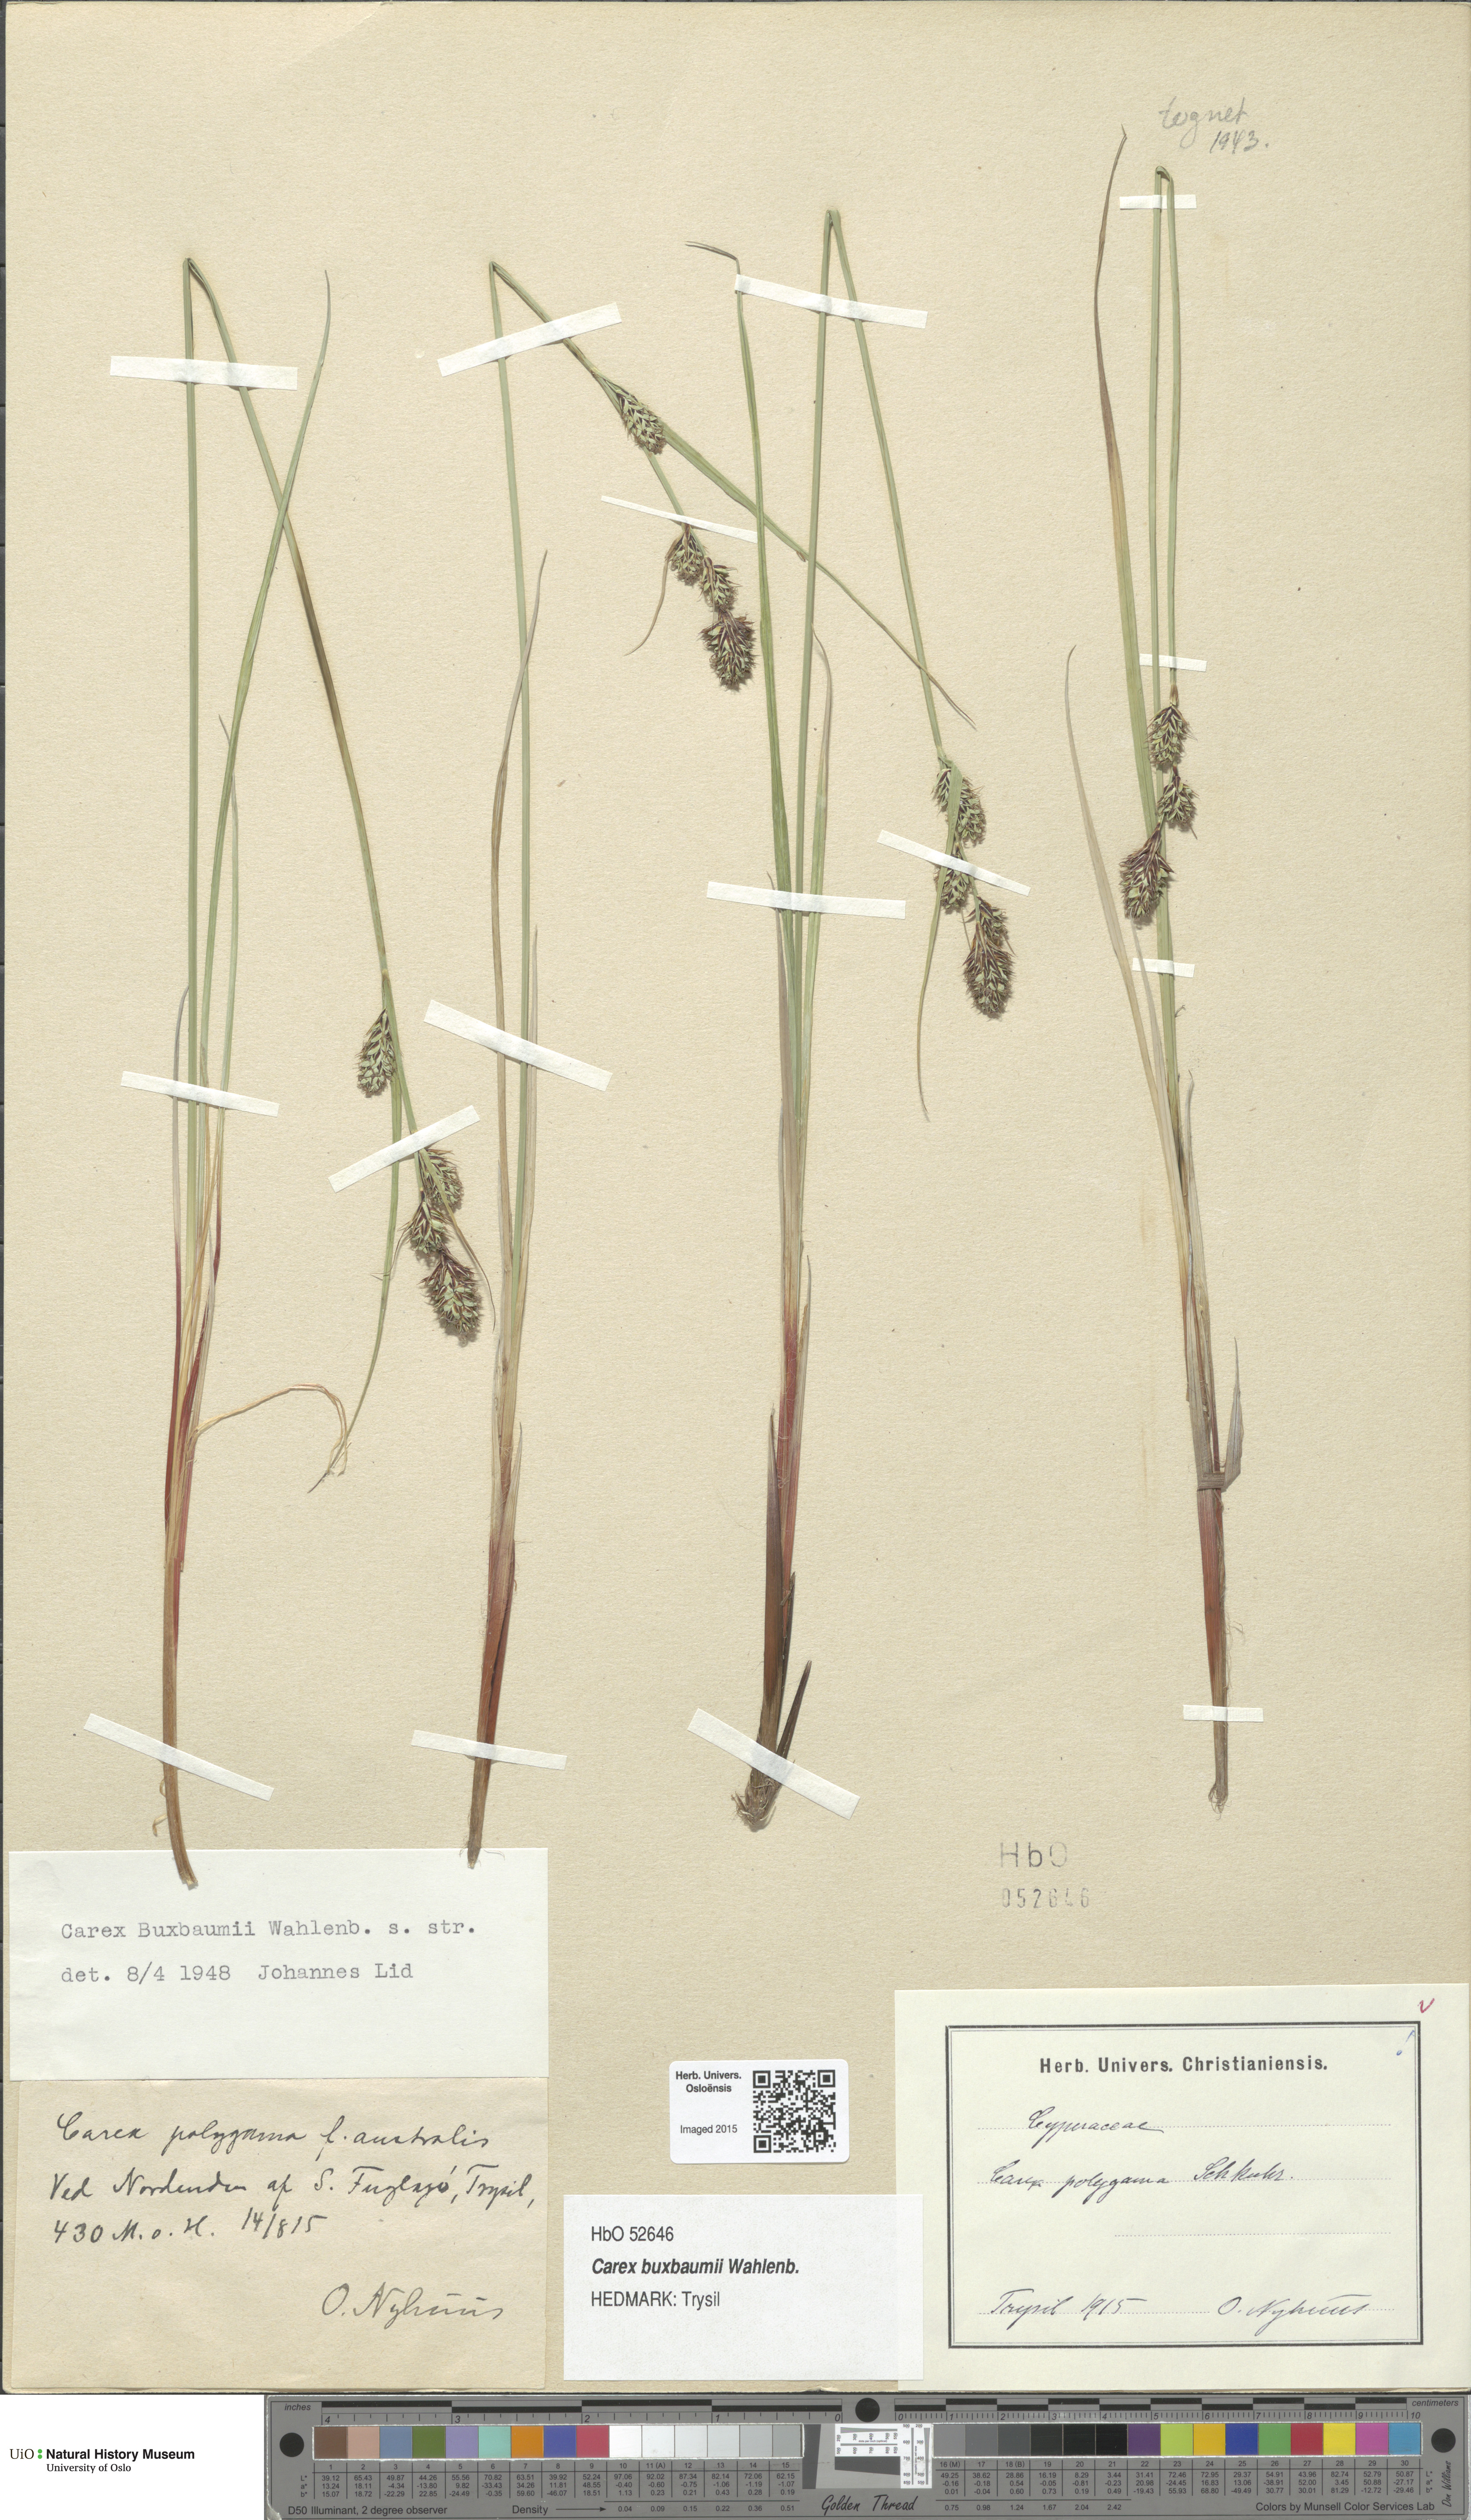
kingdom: Plantae
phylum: Tracheophyta
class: Liliopsida
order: Poales
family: Cyperaceae
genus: Carex
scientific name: Carex buxbaumii
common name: Club sedge
